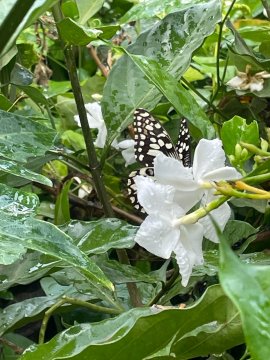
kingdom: Animalia
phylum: Arthropoda
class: Insecta
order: Lepidoptera
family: Papilionidae
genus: Papilio
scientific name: Papilio demoleus
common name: Lime Swallowtail
